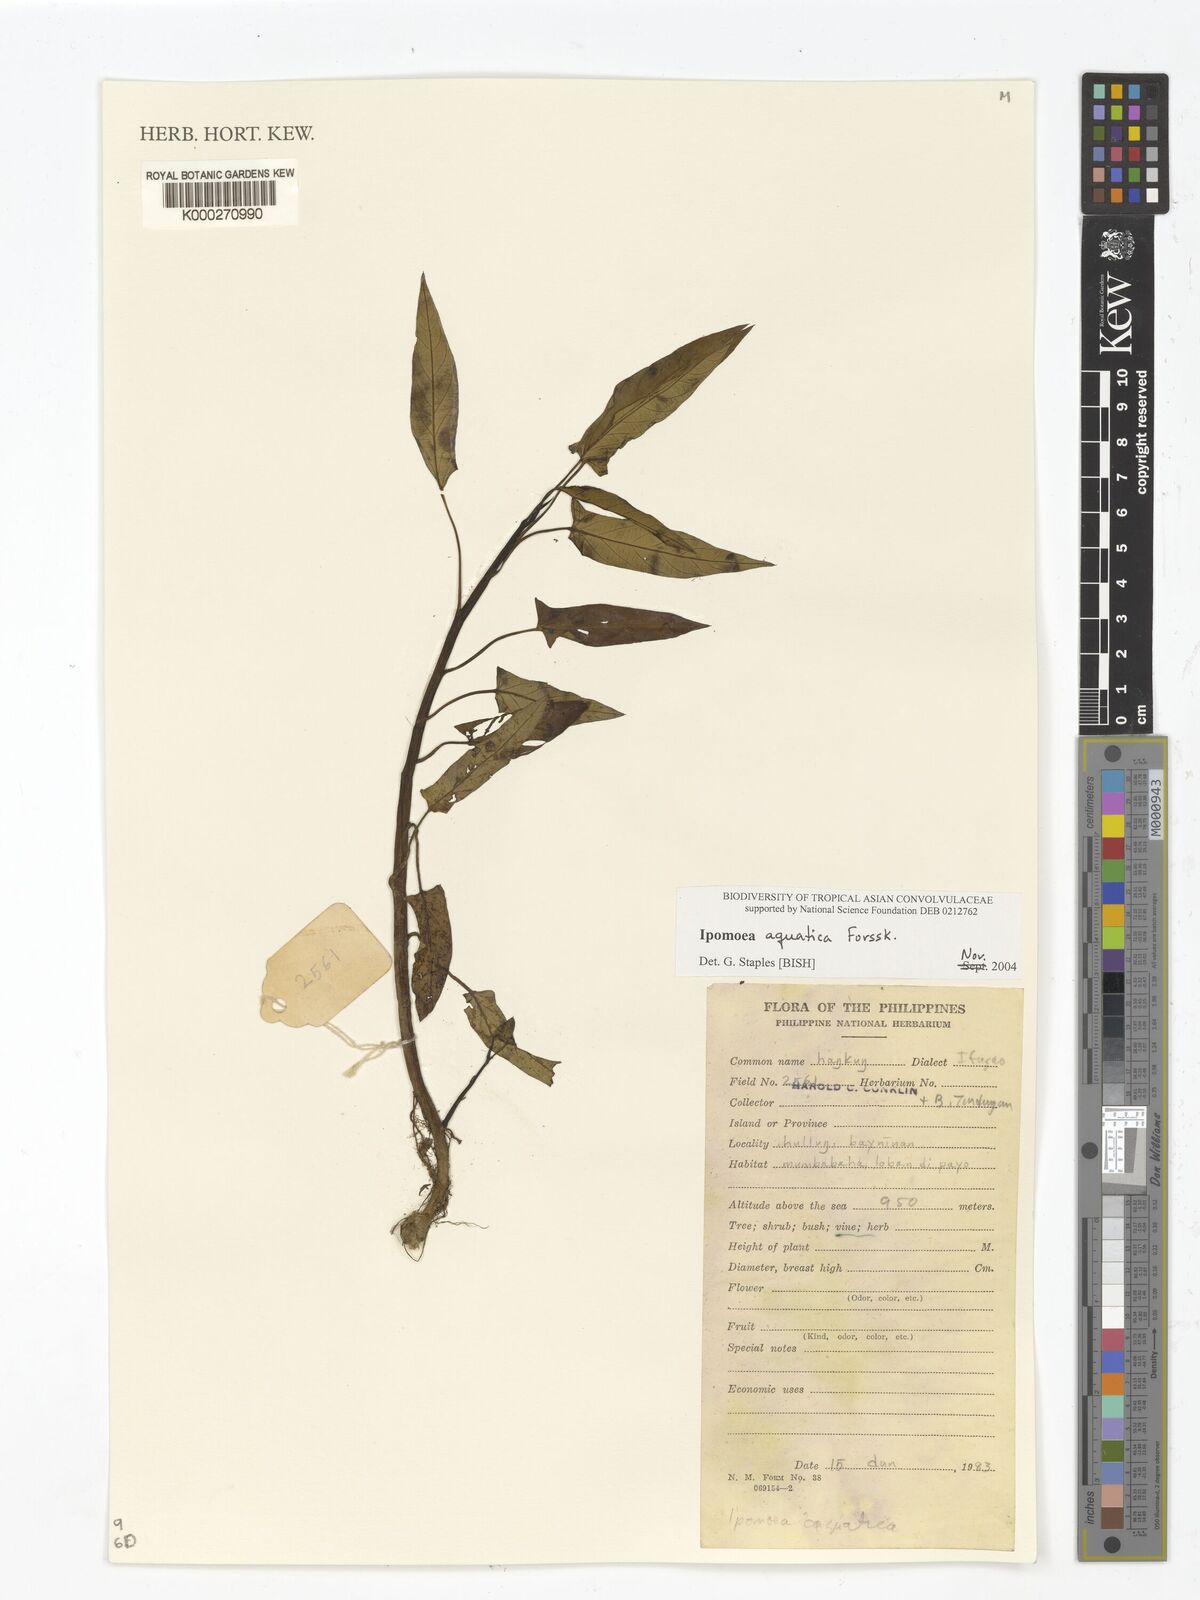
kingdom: Plantae
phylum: Tracheophyta
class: Magnoliopsida
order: Solanales
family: Convolvulaceae
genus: Ipomoea
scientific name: Ipomoea aquatica
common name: Swamp morning-glory
